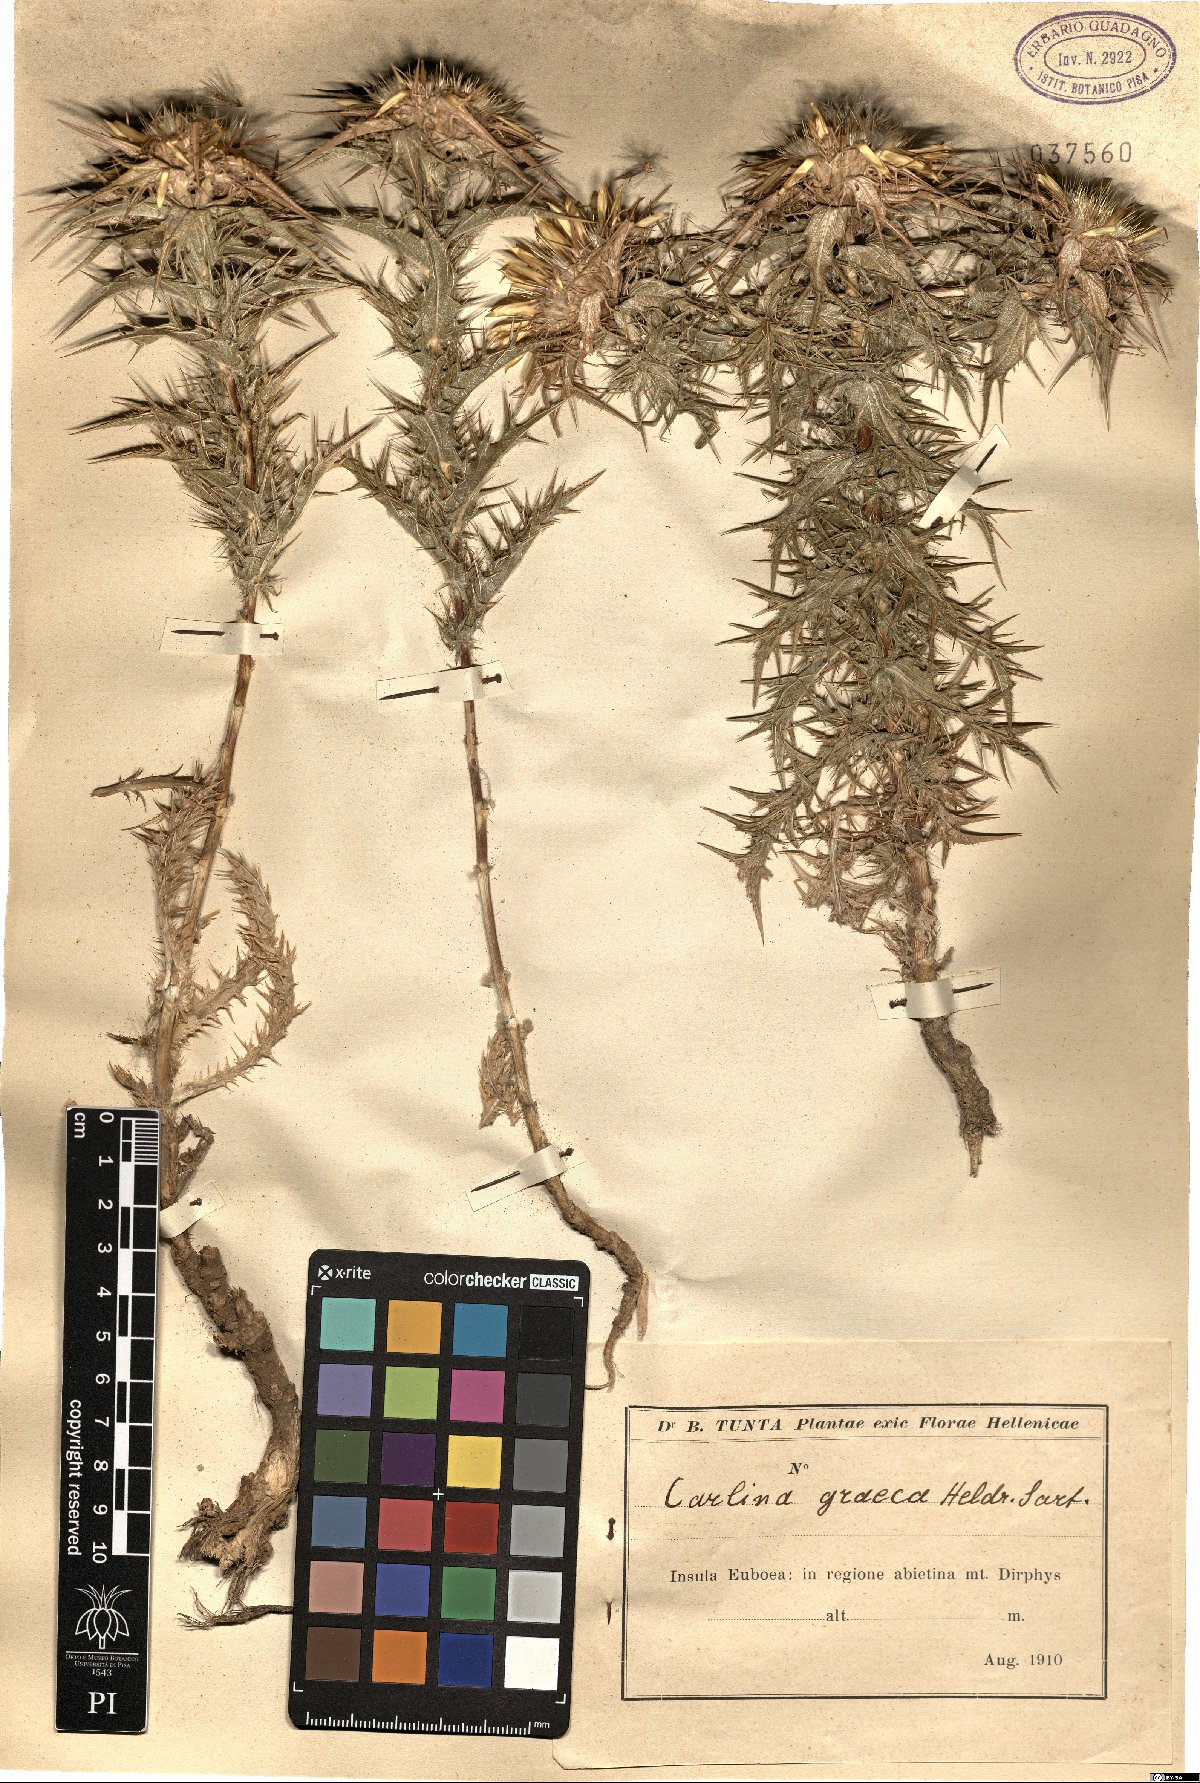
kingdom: Plantae
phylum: Tracheophyta
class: Magnoliopsida
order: Asterales
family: Asteraceae
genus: Carlina
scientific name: Carlina graeca
